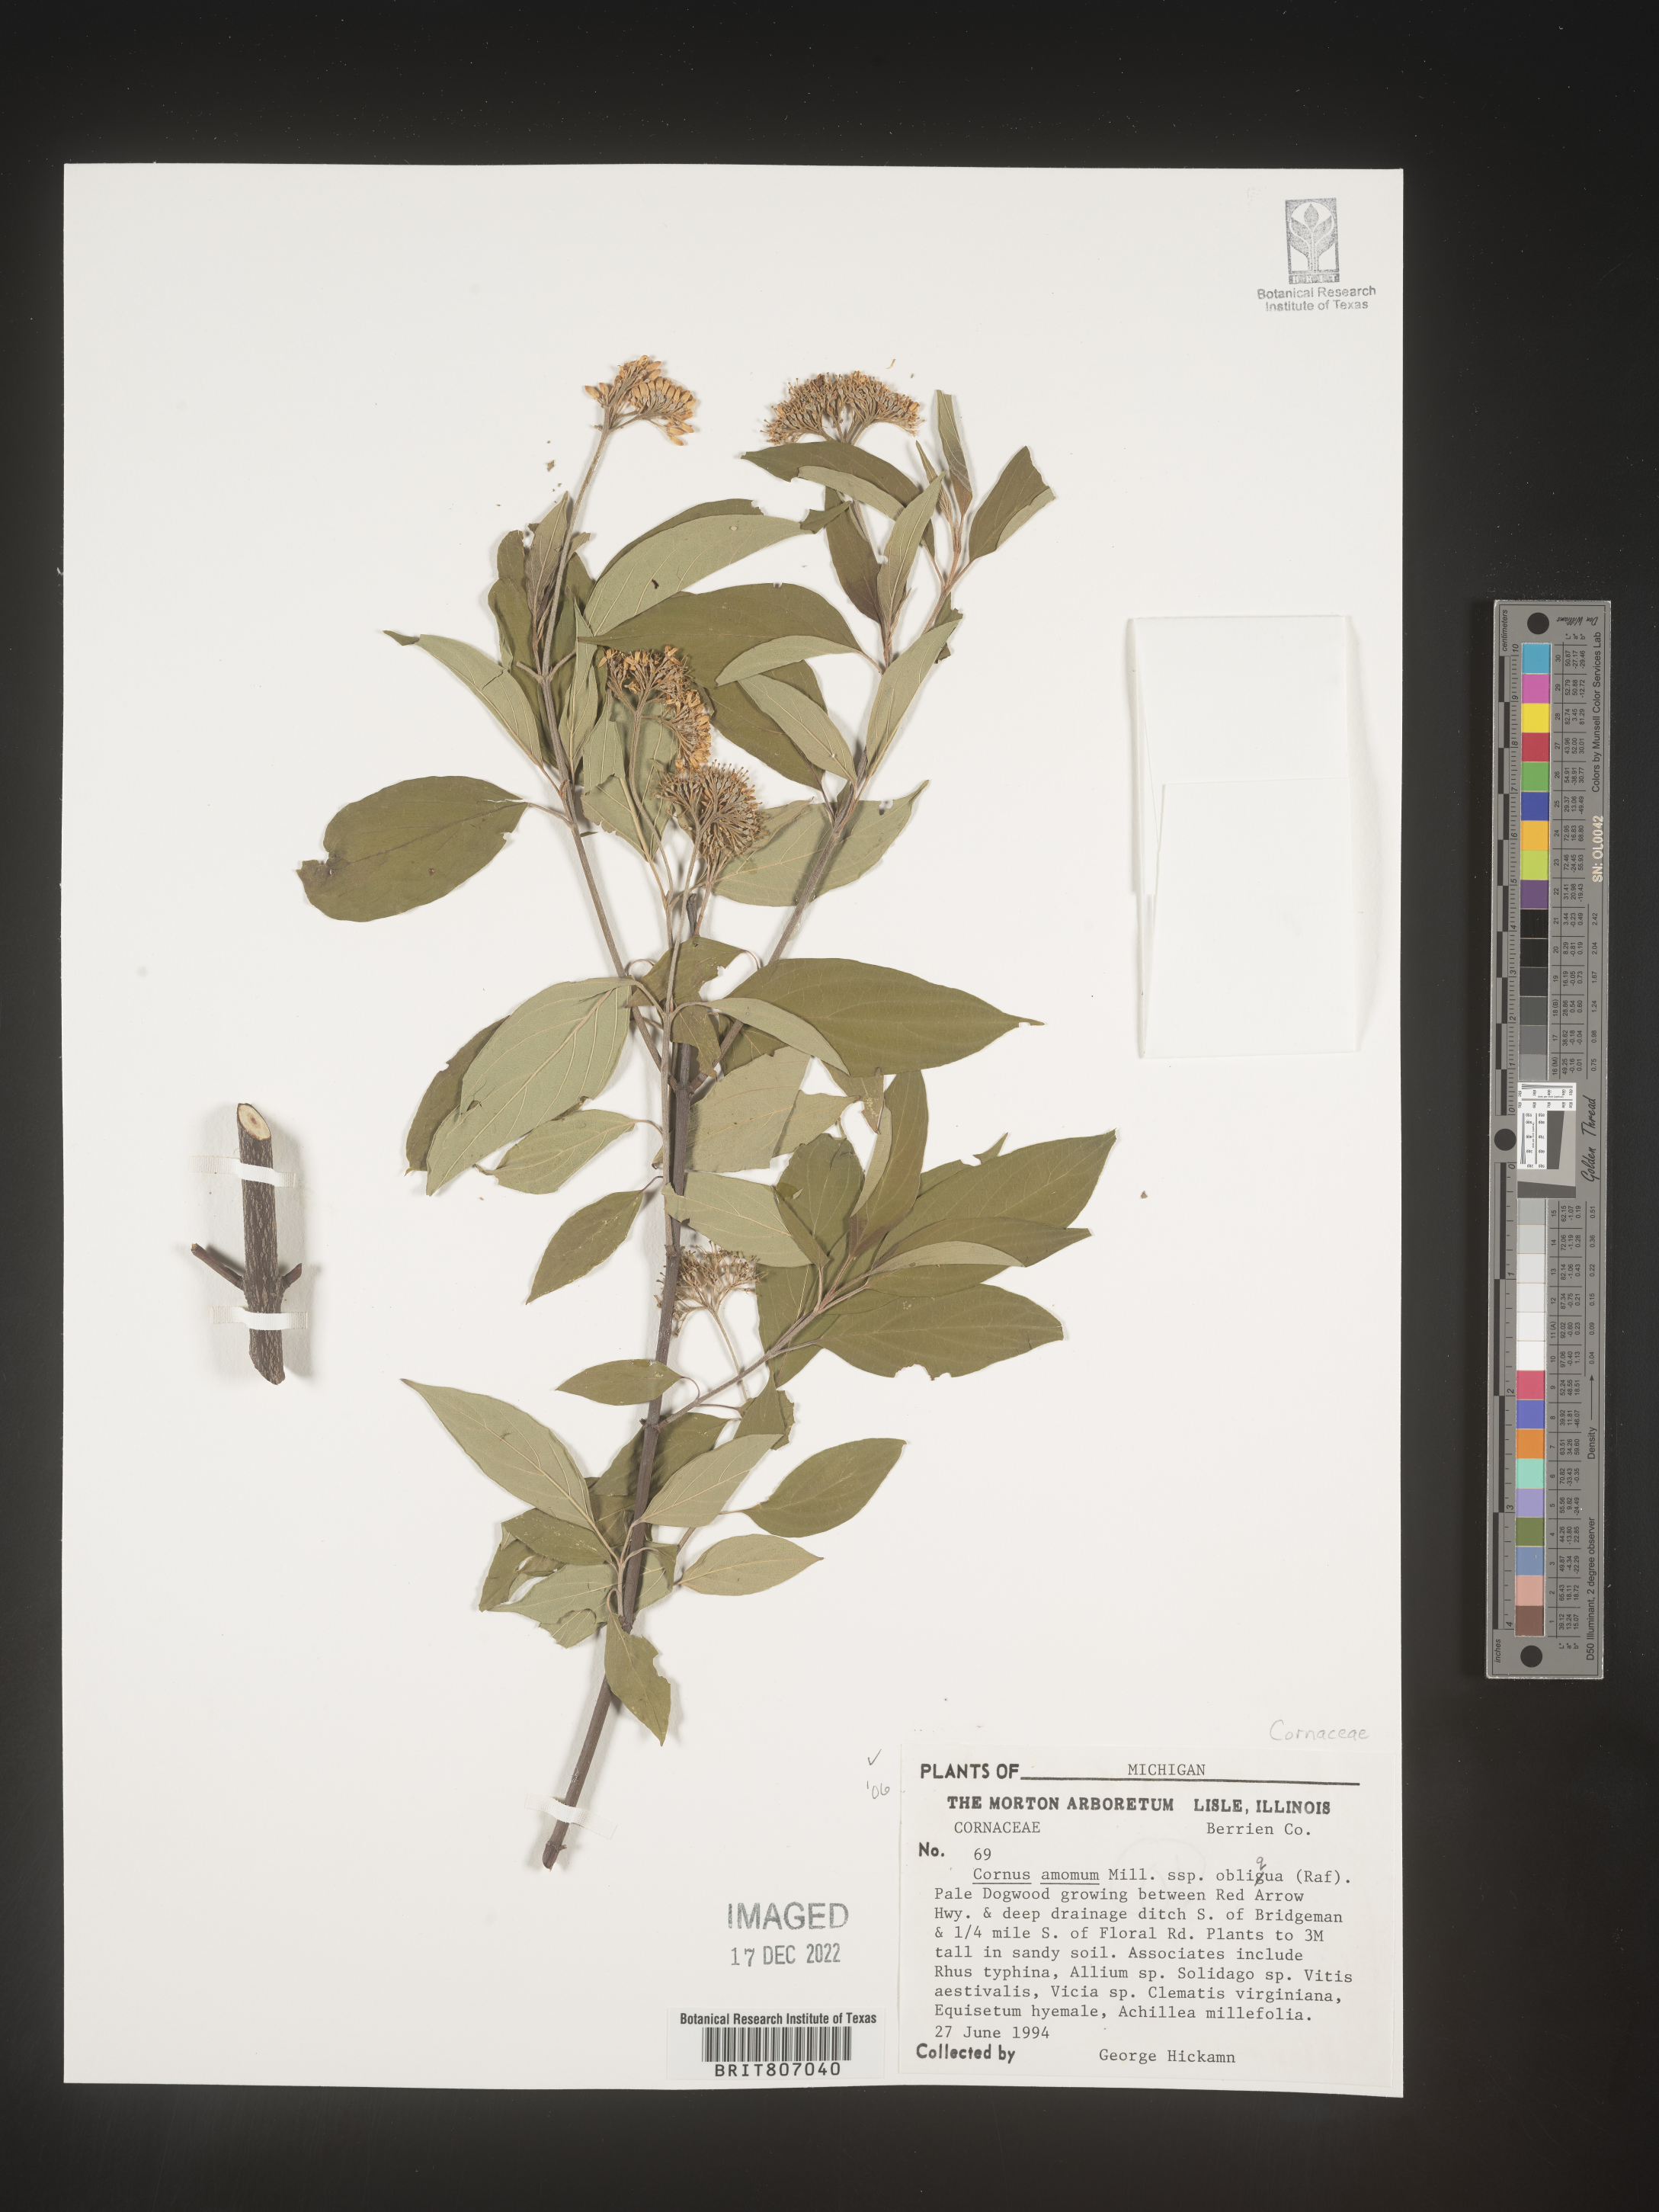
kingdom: Plantae
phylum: Tracheophyta
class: Magnoliopsida
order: Cornales
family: Cornaceae
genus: Cornus
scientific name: Cornus amomum
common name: Silky dogwood
